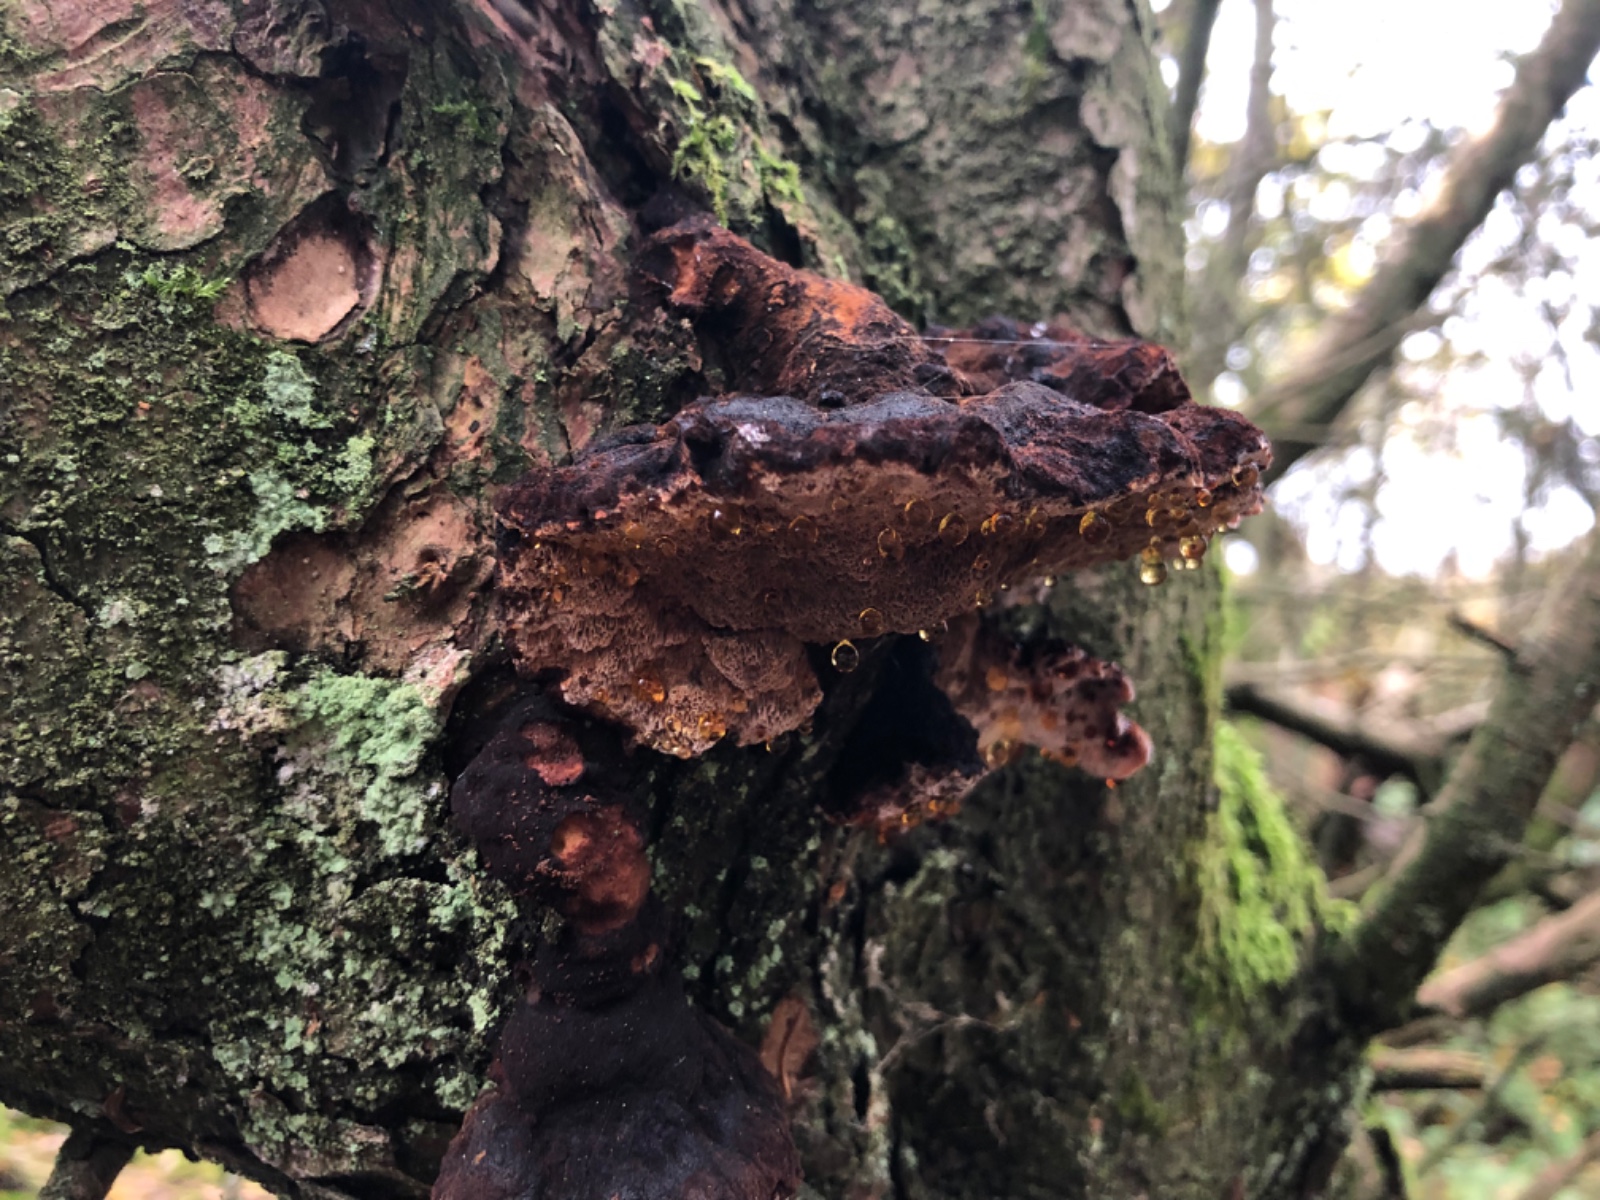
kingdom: Fungi
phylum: Basidiomycota
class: Agaricomycetes
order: Polyporales
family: Ischnodermataceae
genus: Ischnoderma
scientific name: Ischnoderma benzoinum
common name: gran-tjæreporesvamp
